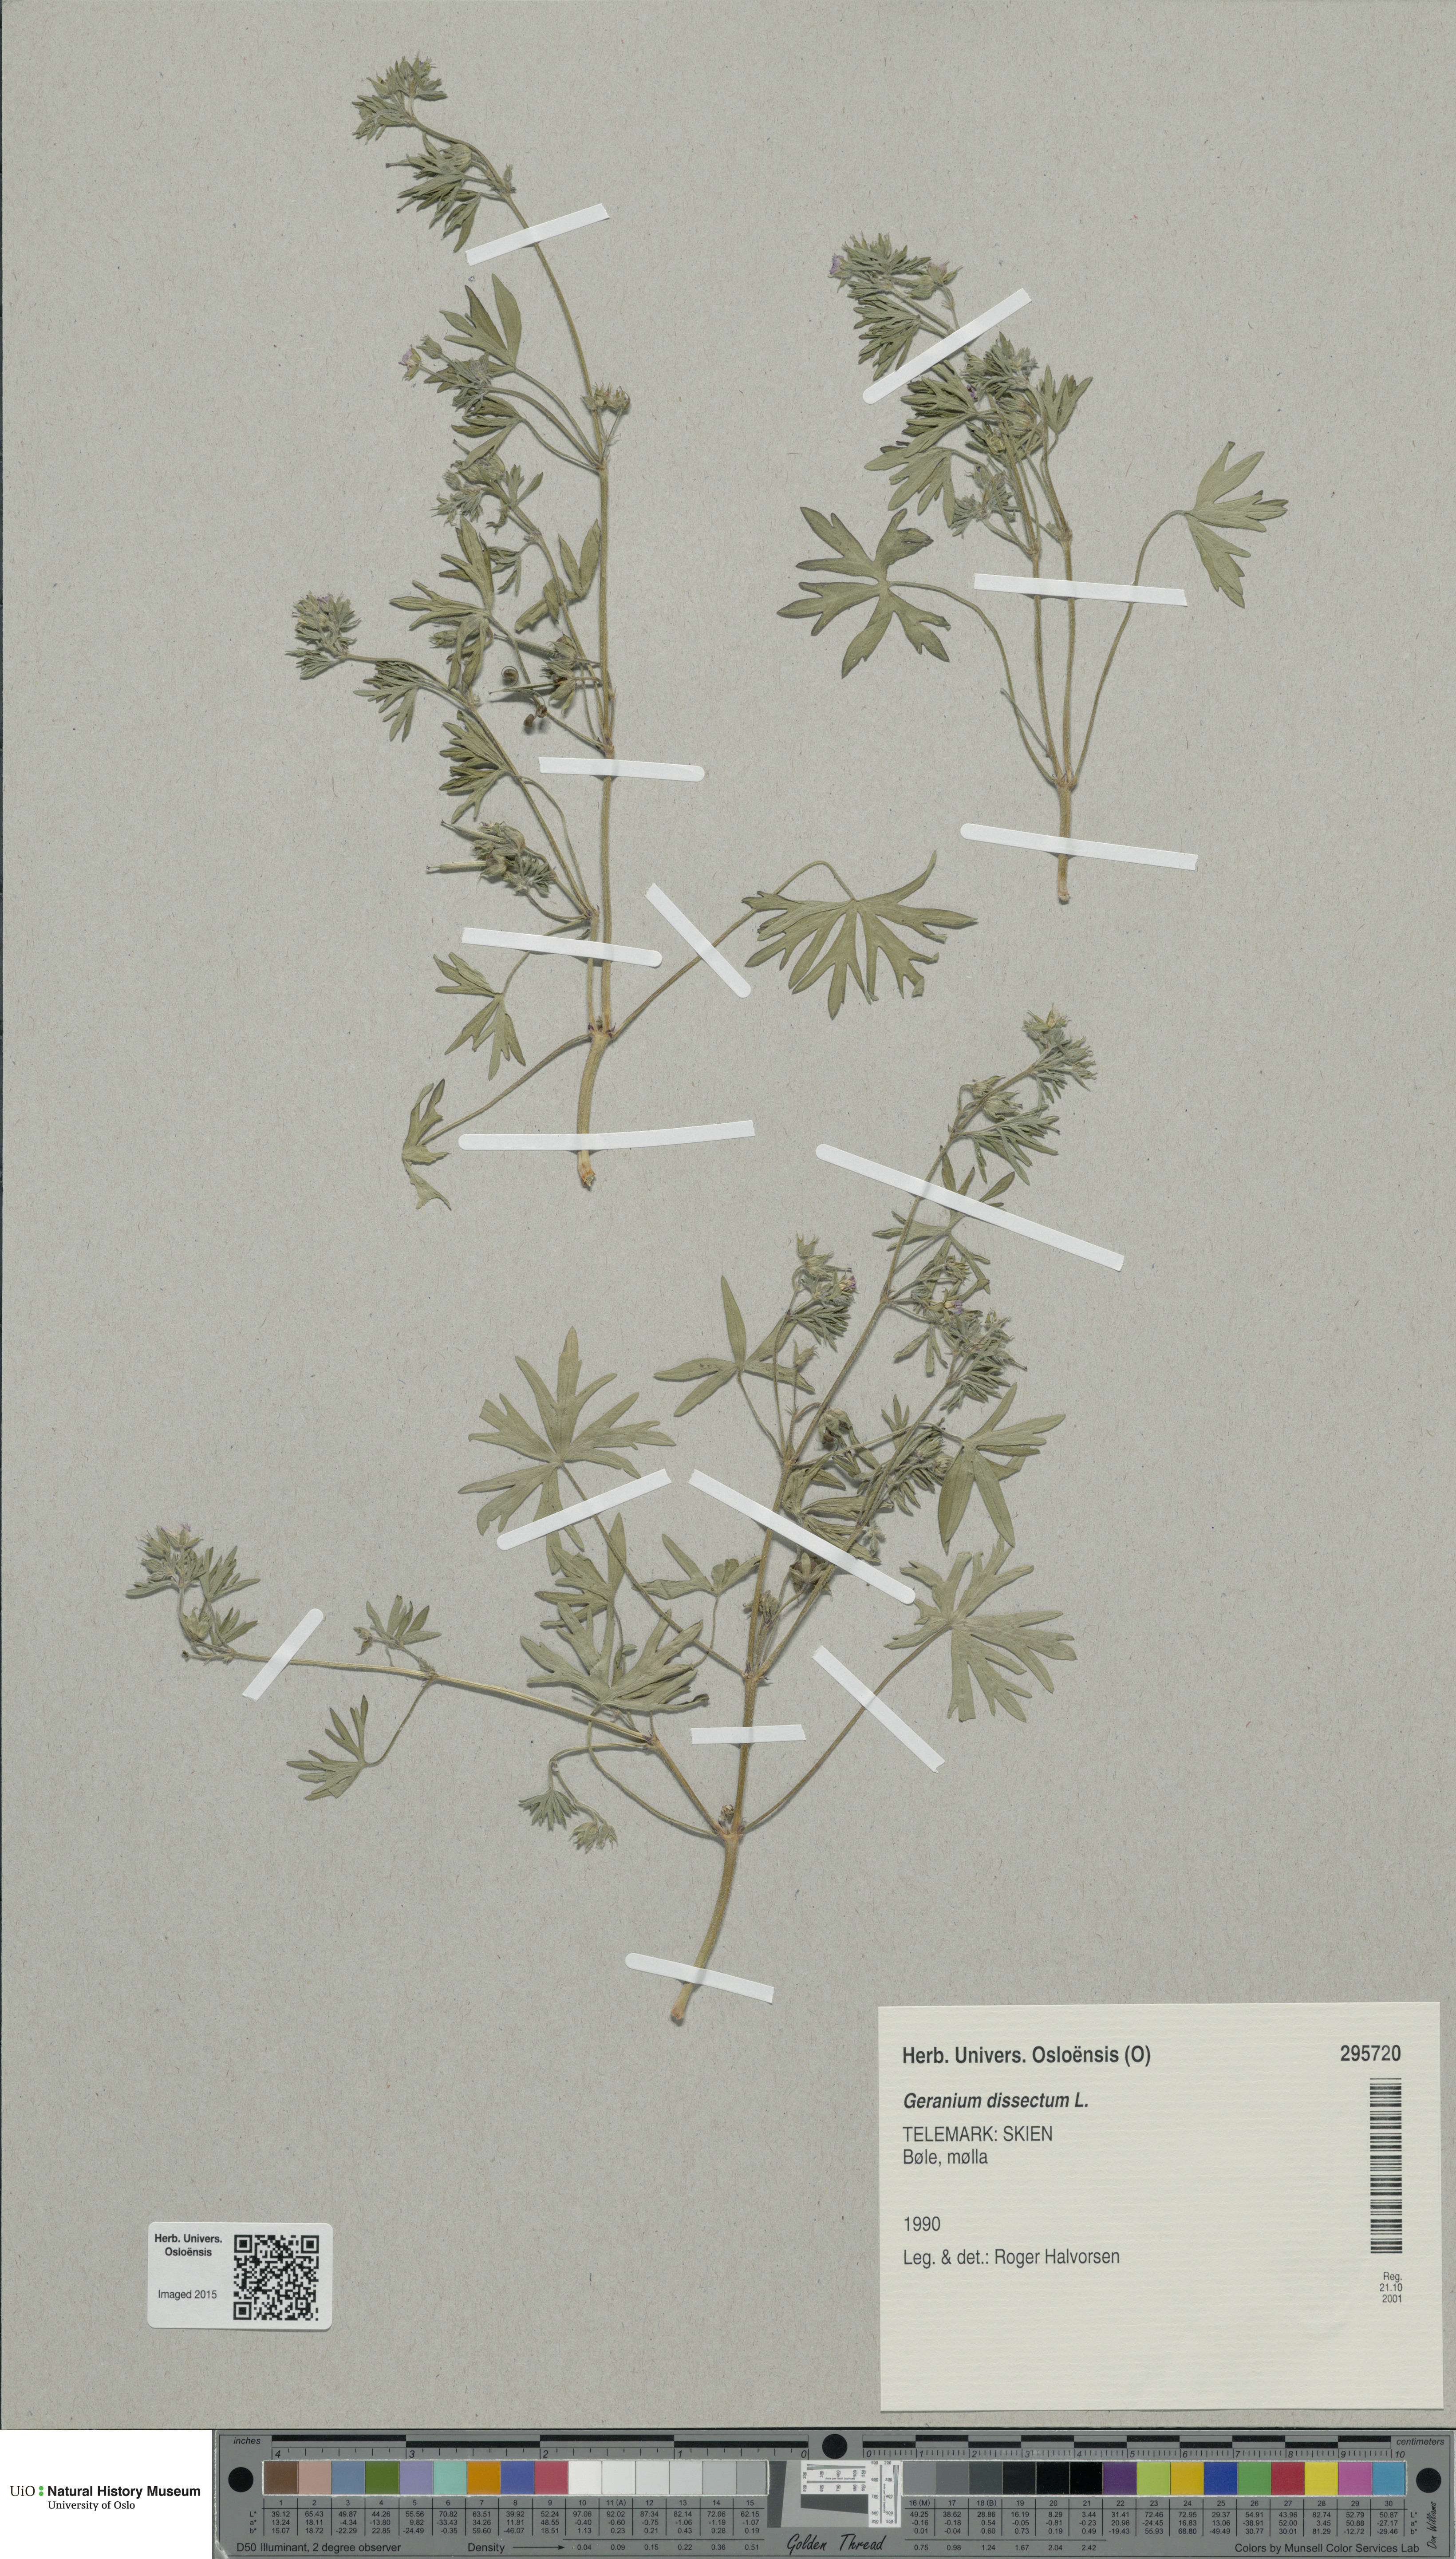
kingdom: Plantae
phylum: Tracheophyta
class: Magnoliopsida
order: Geraniales
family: Geraniaceae
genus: Geranium
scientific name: Geranium dissectum
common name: Cut-leaved crane's-bill
